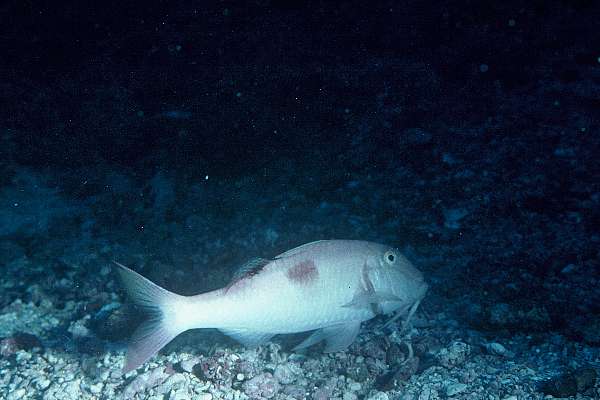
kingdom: Animalia
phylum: Chordata
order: Perciformes
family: Mullidae
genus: Parupeneus
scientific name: Parupeneus pleurostigma
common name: Sidespot goatfish
